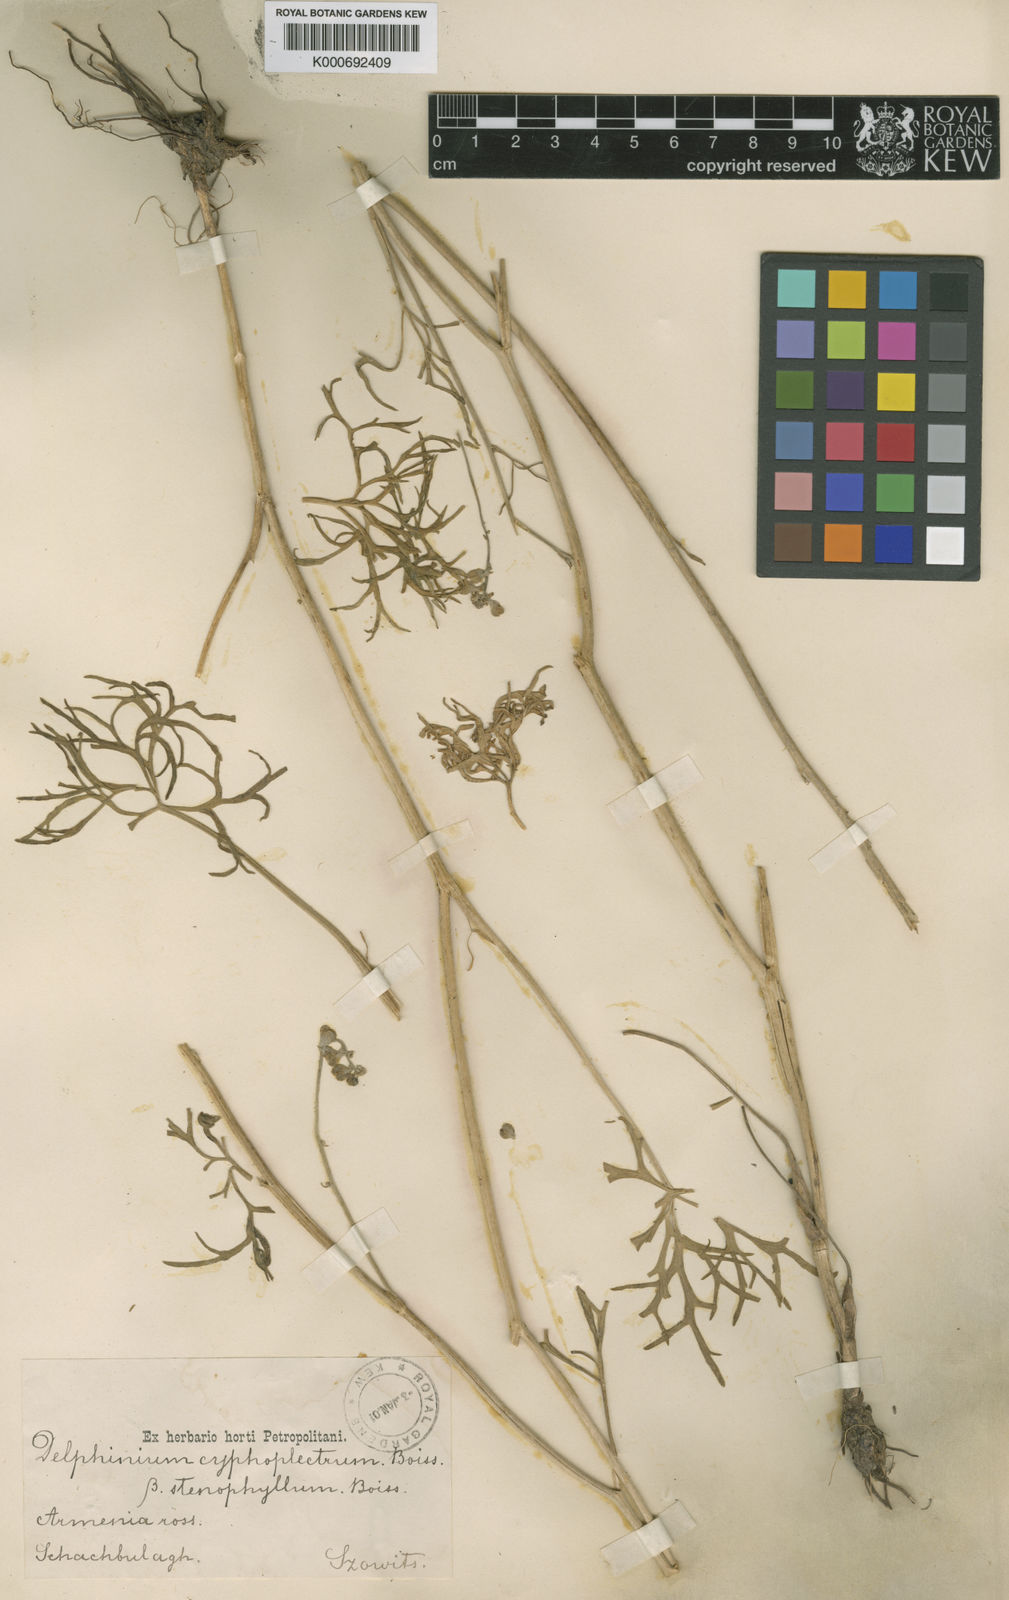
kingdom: Plantae
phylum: Tracheophyta
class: Magnoliopsida
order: Ranunculales
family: Ranunculaceae
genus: Delphinium
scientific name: Delphinium cyphoplectrum
